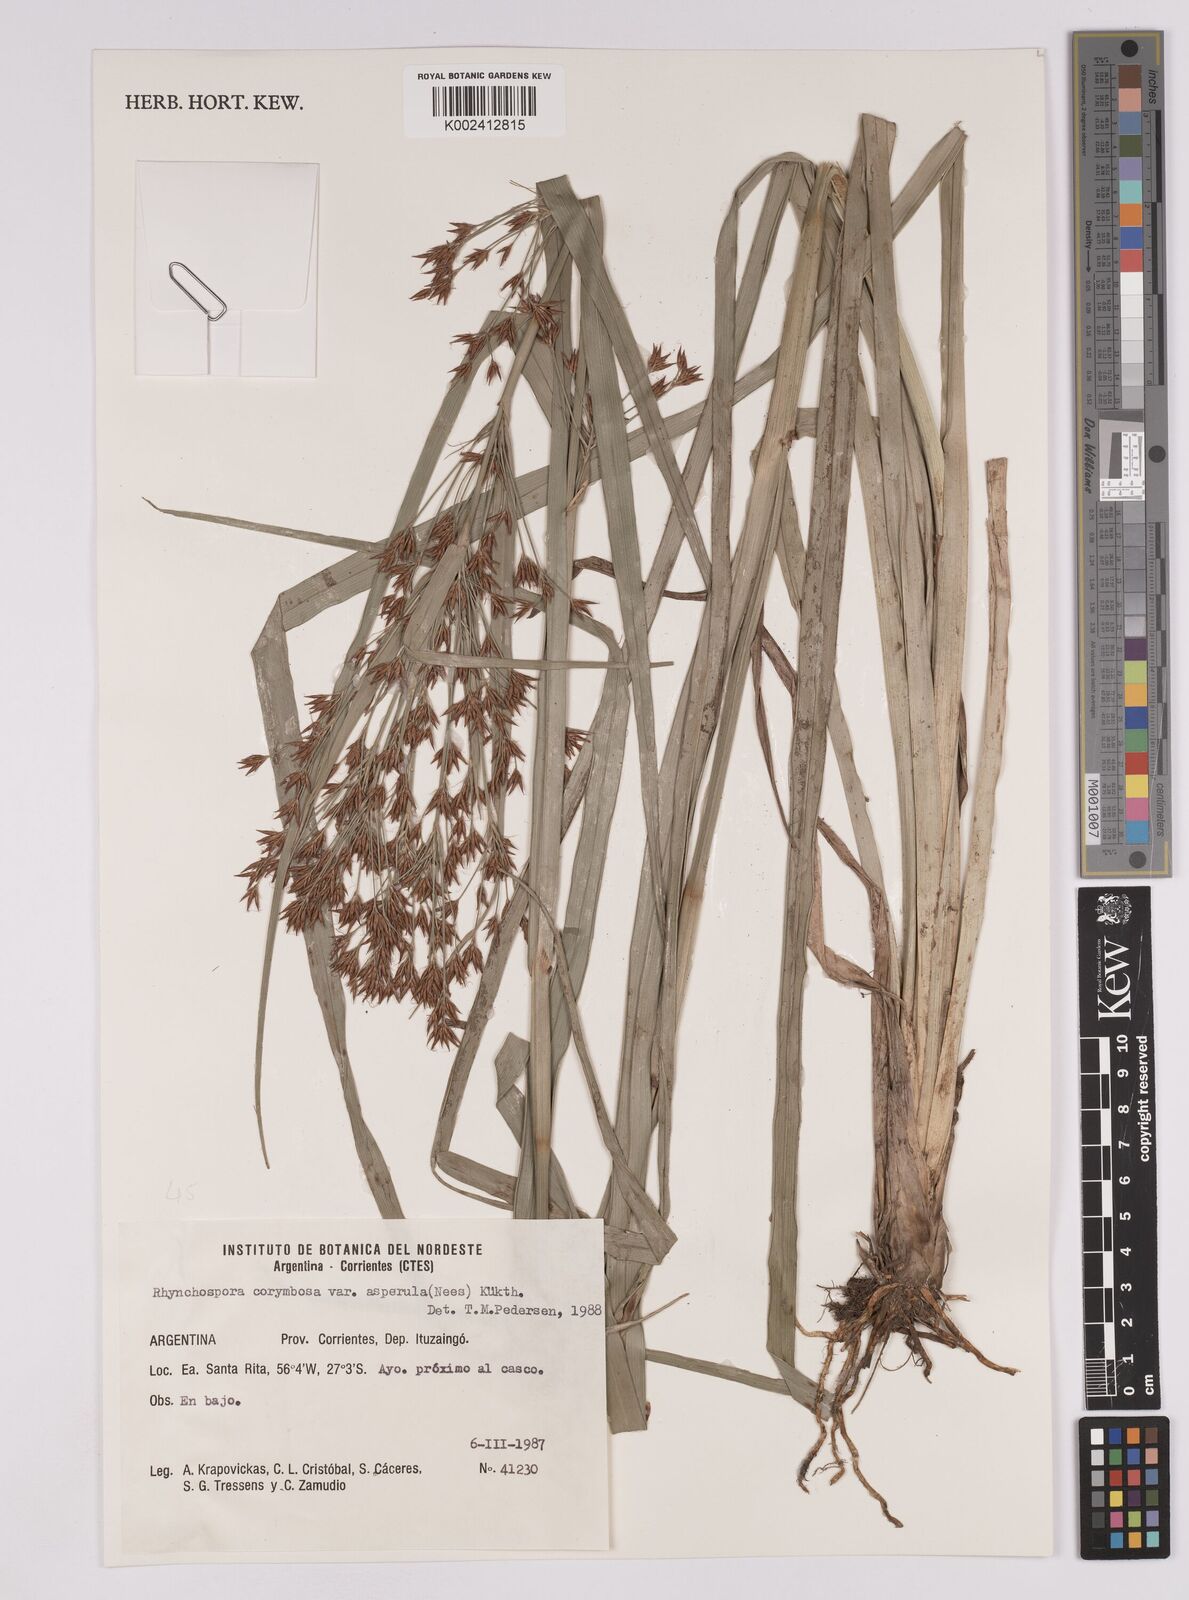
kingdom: Plantae
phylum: Tracheophyta
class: Liliopsida
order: Poales
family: Cyperaceae
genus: Rhynchospora
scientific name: Rhynchospora corymbosa
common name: Golden beak sedge
